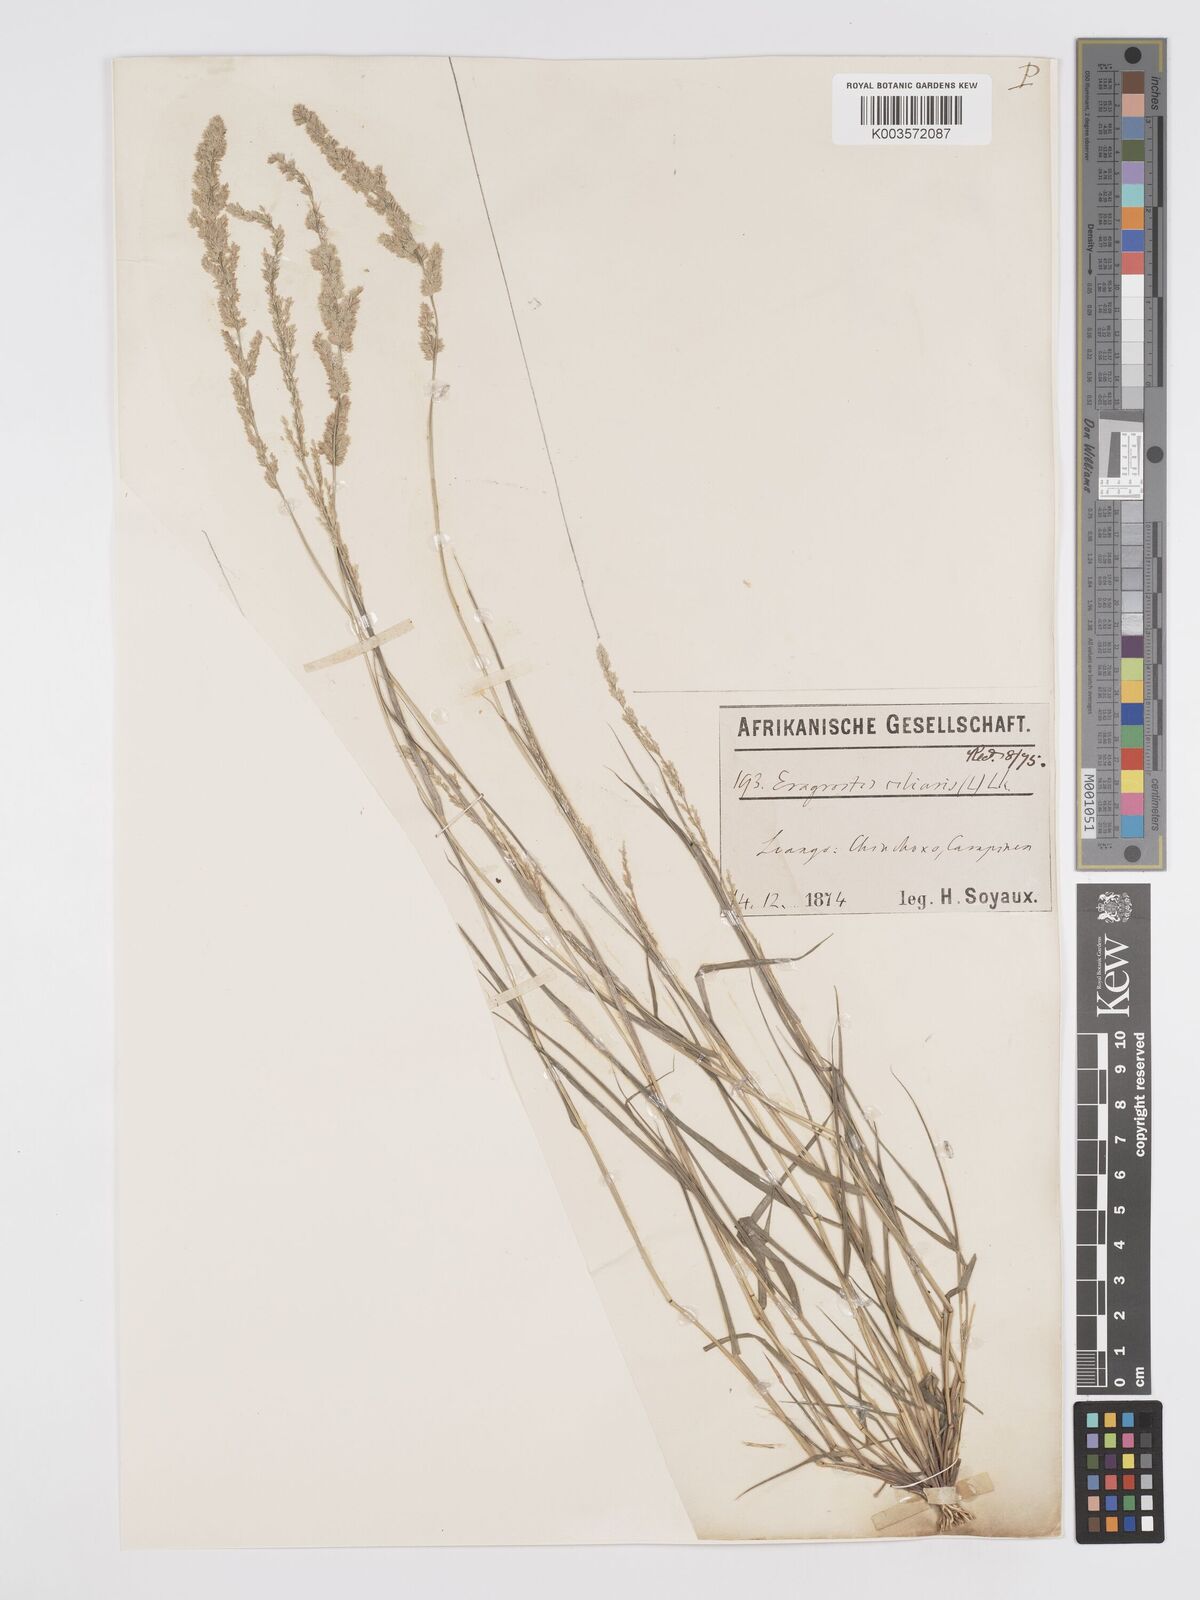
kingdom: Plantae
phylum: Tracheophyta
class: Liliopsida
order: Poales
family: Poaceae
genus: Eragrostis
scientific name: Eragrostis ciliaris
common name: Gophertail lovegrass
